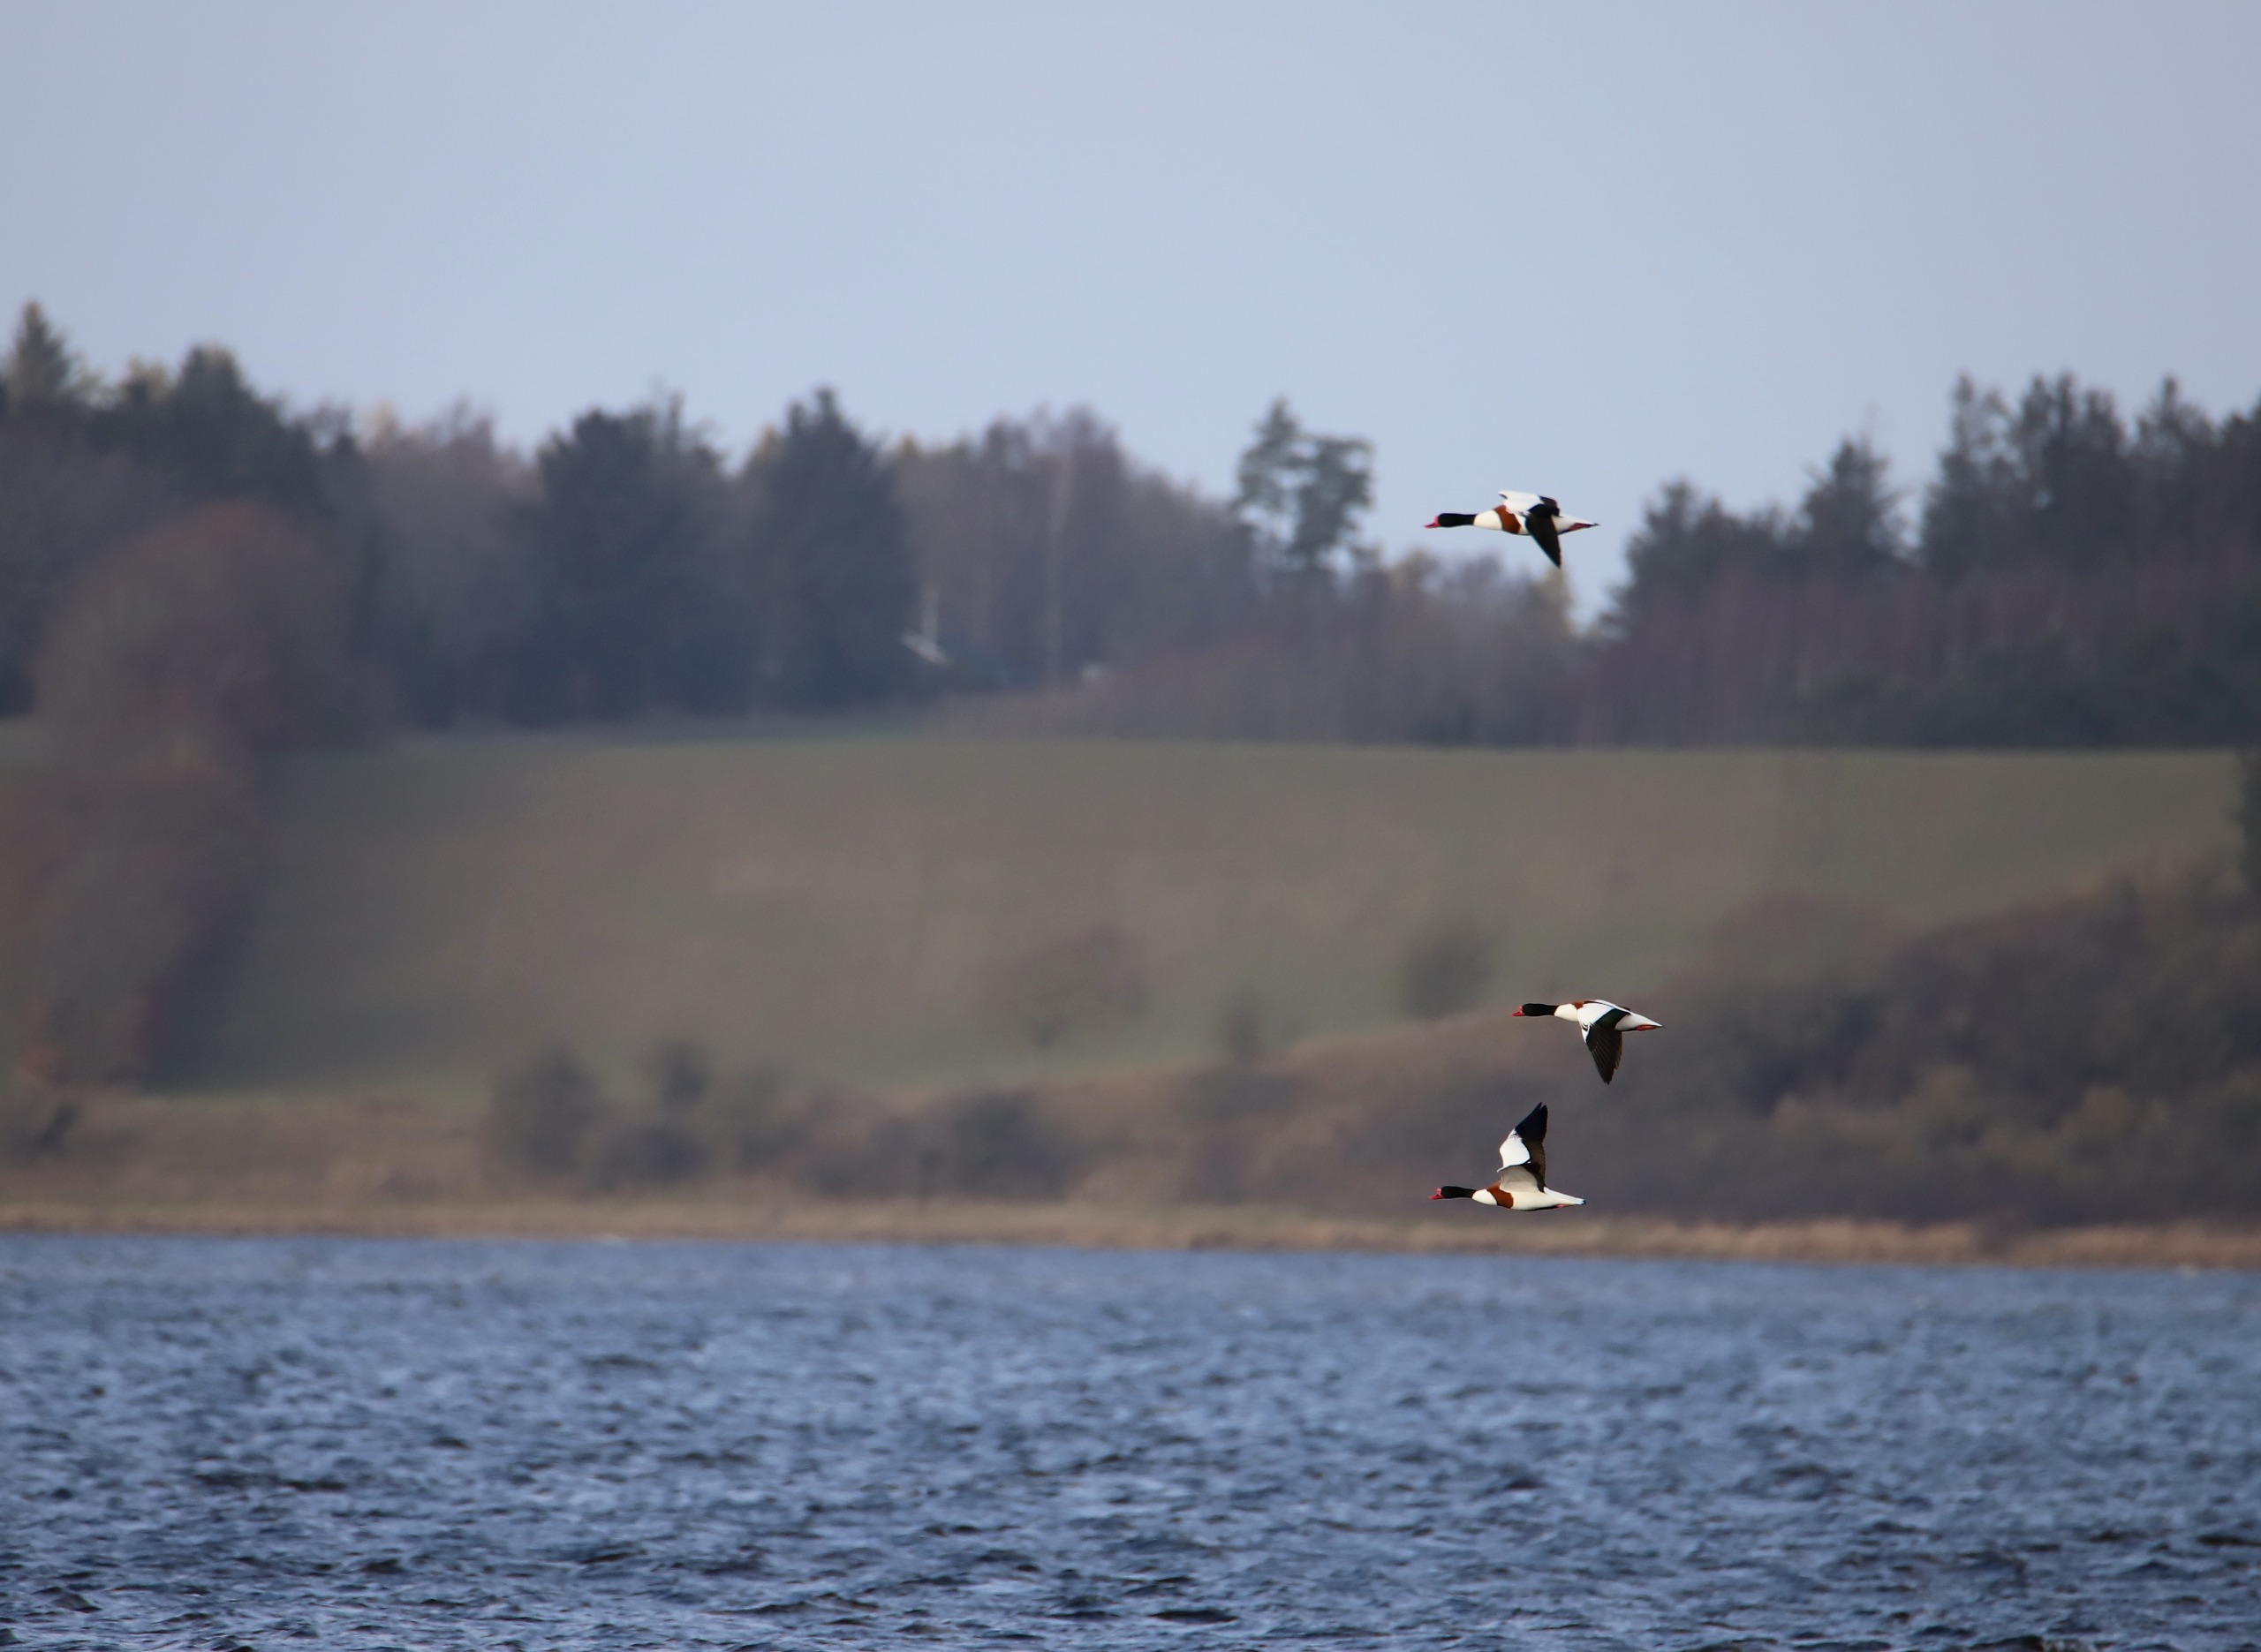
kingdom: Animalia
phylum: Chordata
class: Aves
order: Anseriformes
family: Anatidae
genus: Tadorna
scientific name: Tadorna tadorna
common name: Gravand
